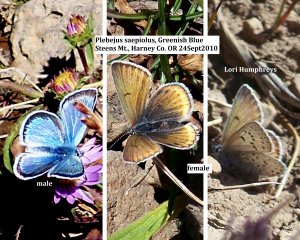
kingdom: Animalia
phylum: Arthropoda
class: Insecta
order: Lepidoptera
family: Lycaenidae
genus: Plebejus
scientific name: Plebejus saepiolus
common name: Greenish Blue
